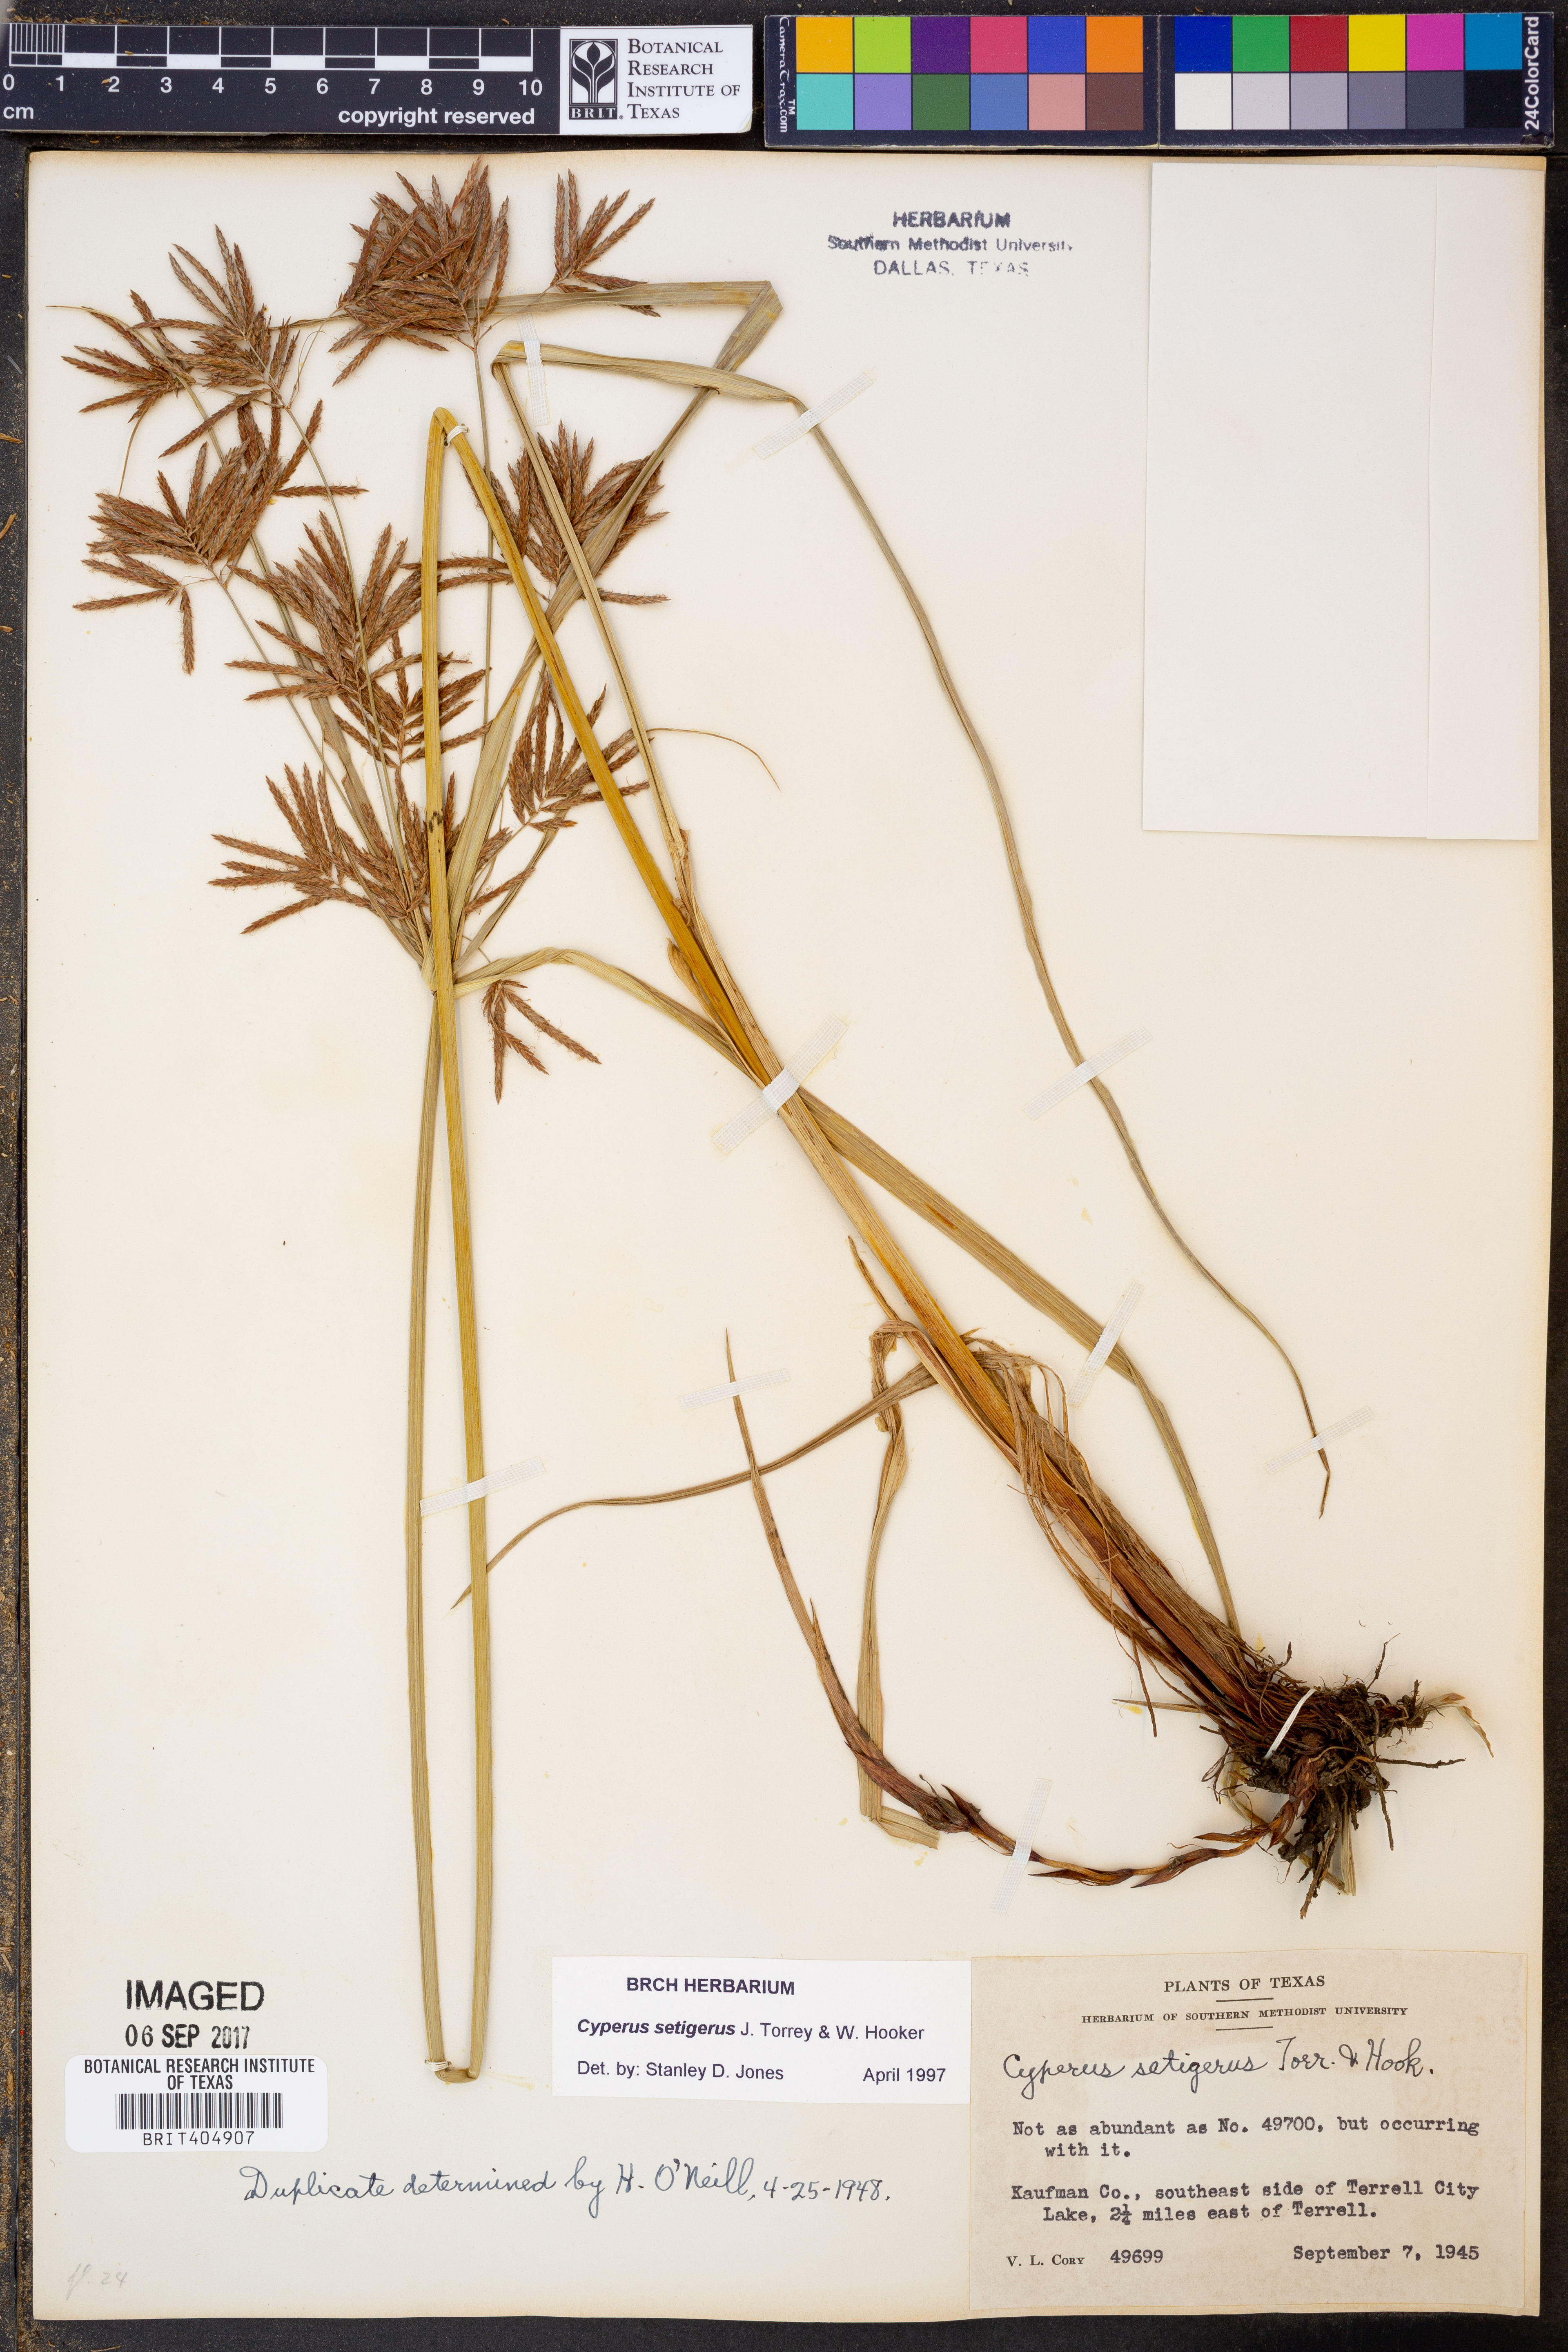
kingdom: Plantae
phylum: Tracheophyta
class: Liliopsida
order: Poales
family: Cyperaceae
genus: Cyperus
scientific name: Cyperus setigerus
